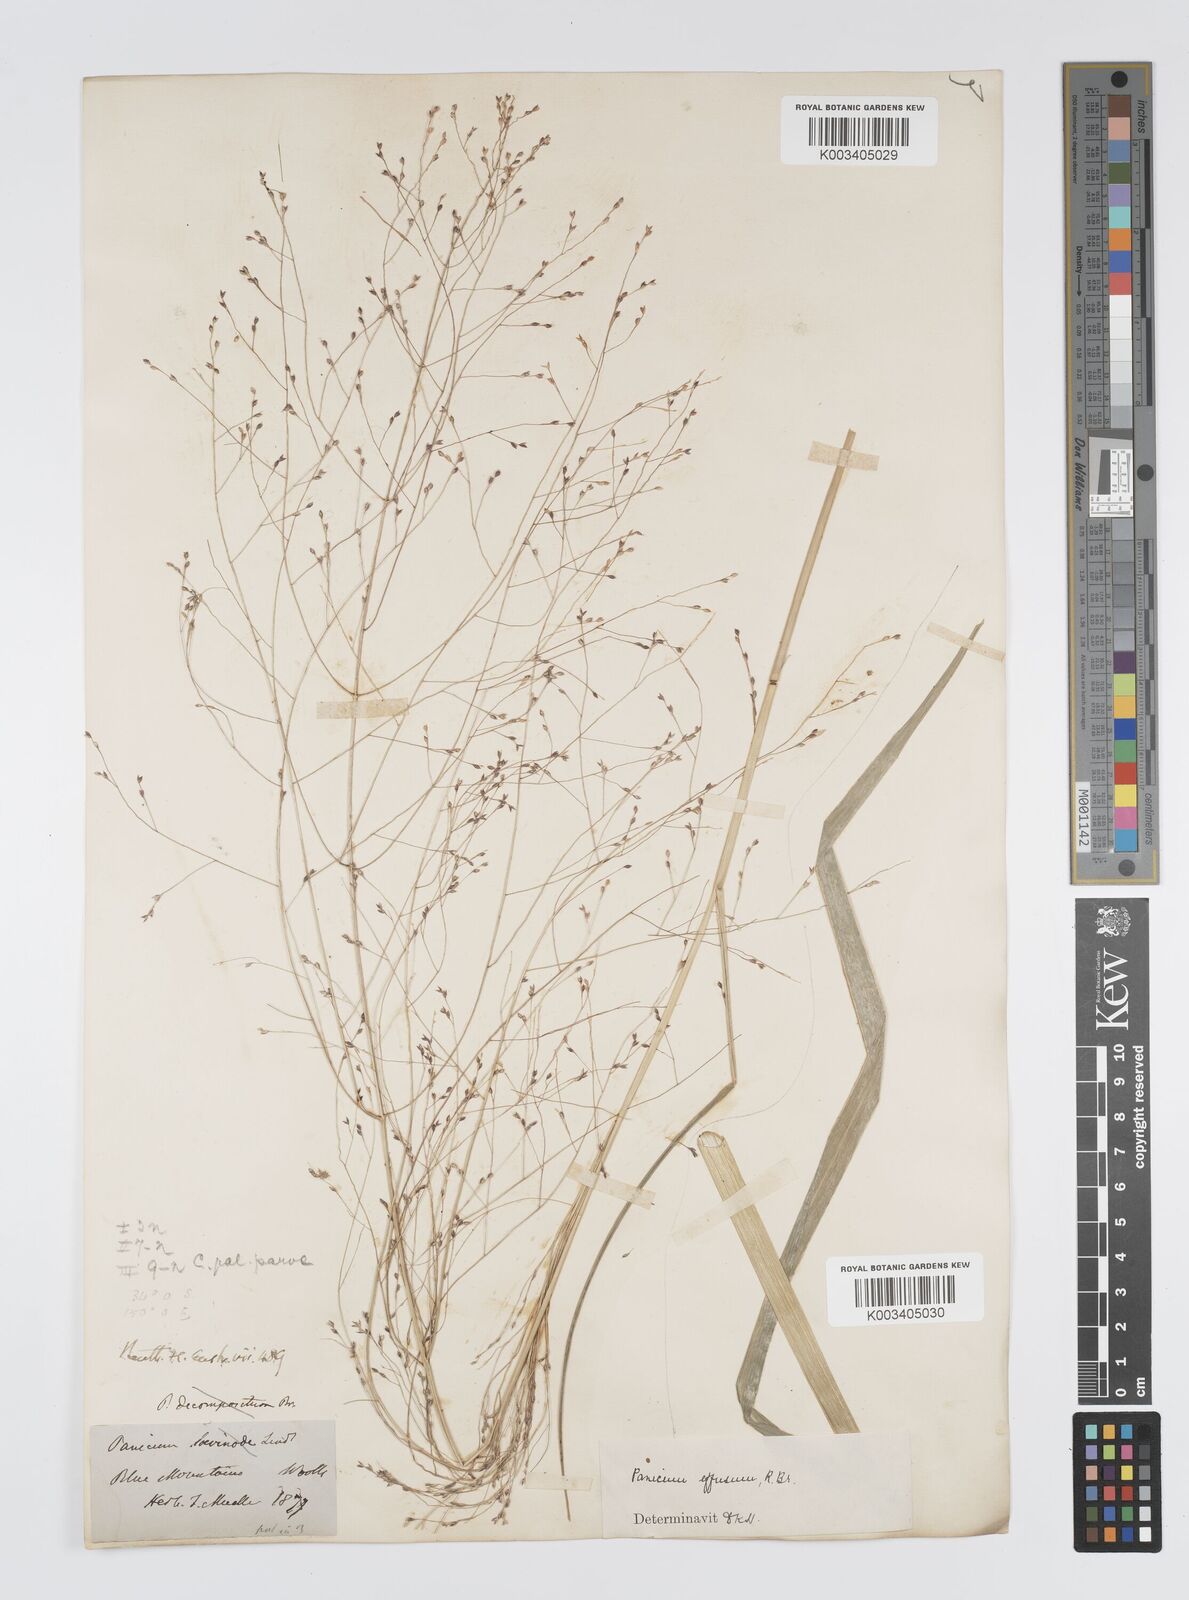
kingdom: Plantae
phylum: Tracheophyta
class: Liliopsida
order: Poales
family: Poaceae
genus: Panicum
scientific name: Panicum effusum
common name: Hairy panic grass
